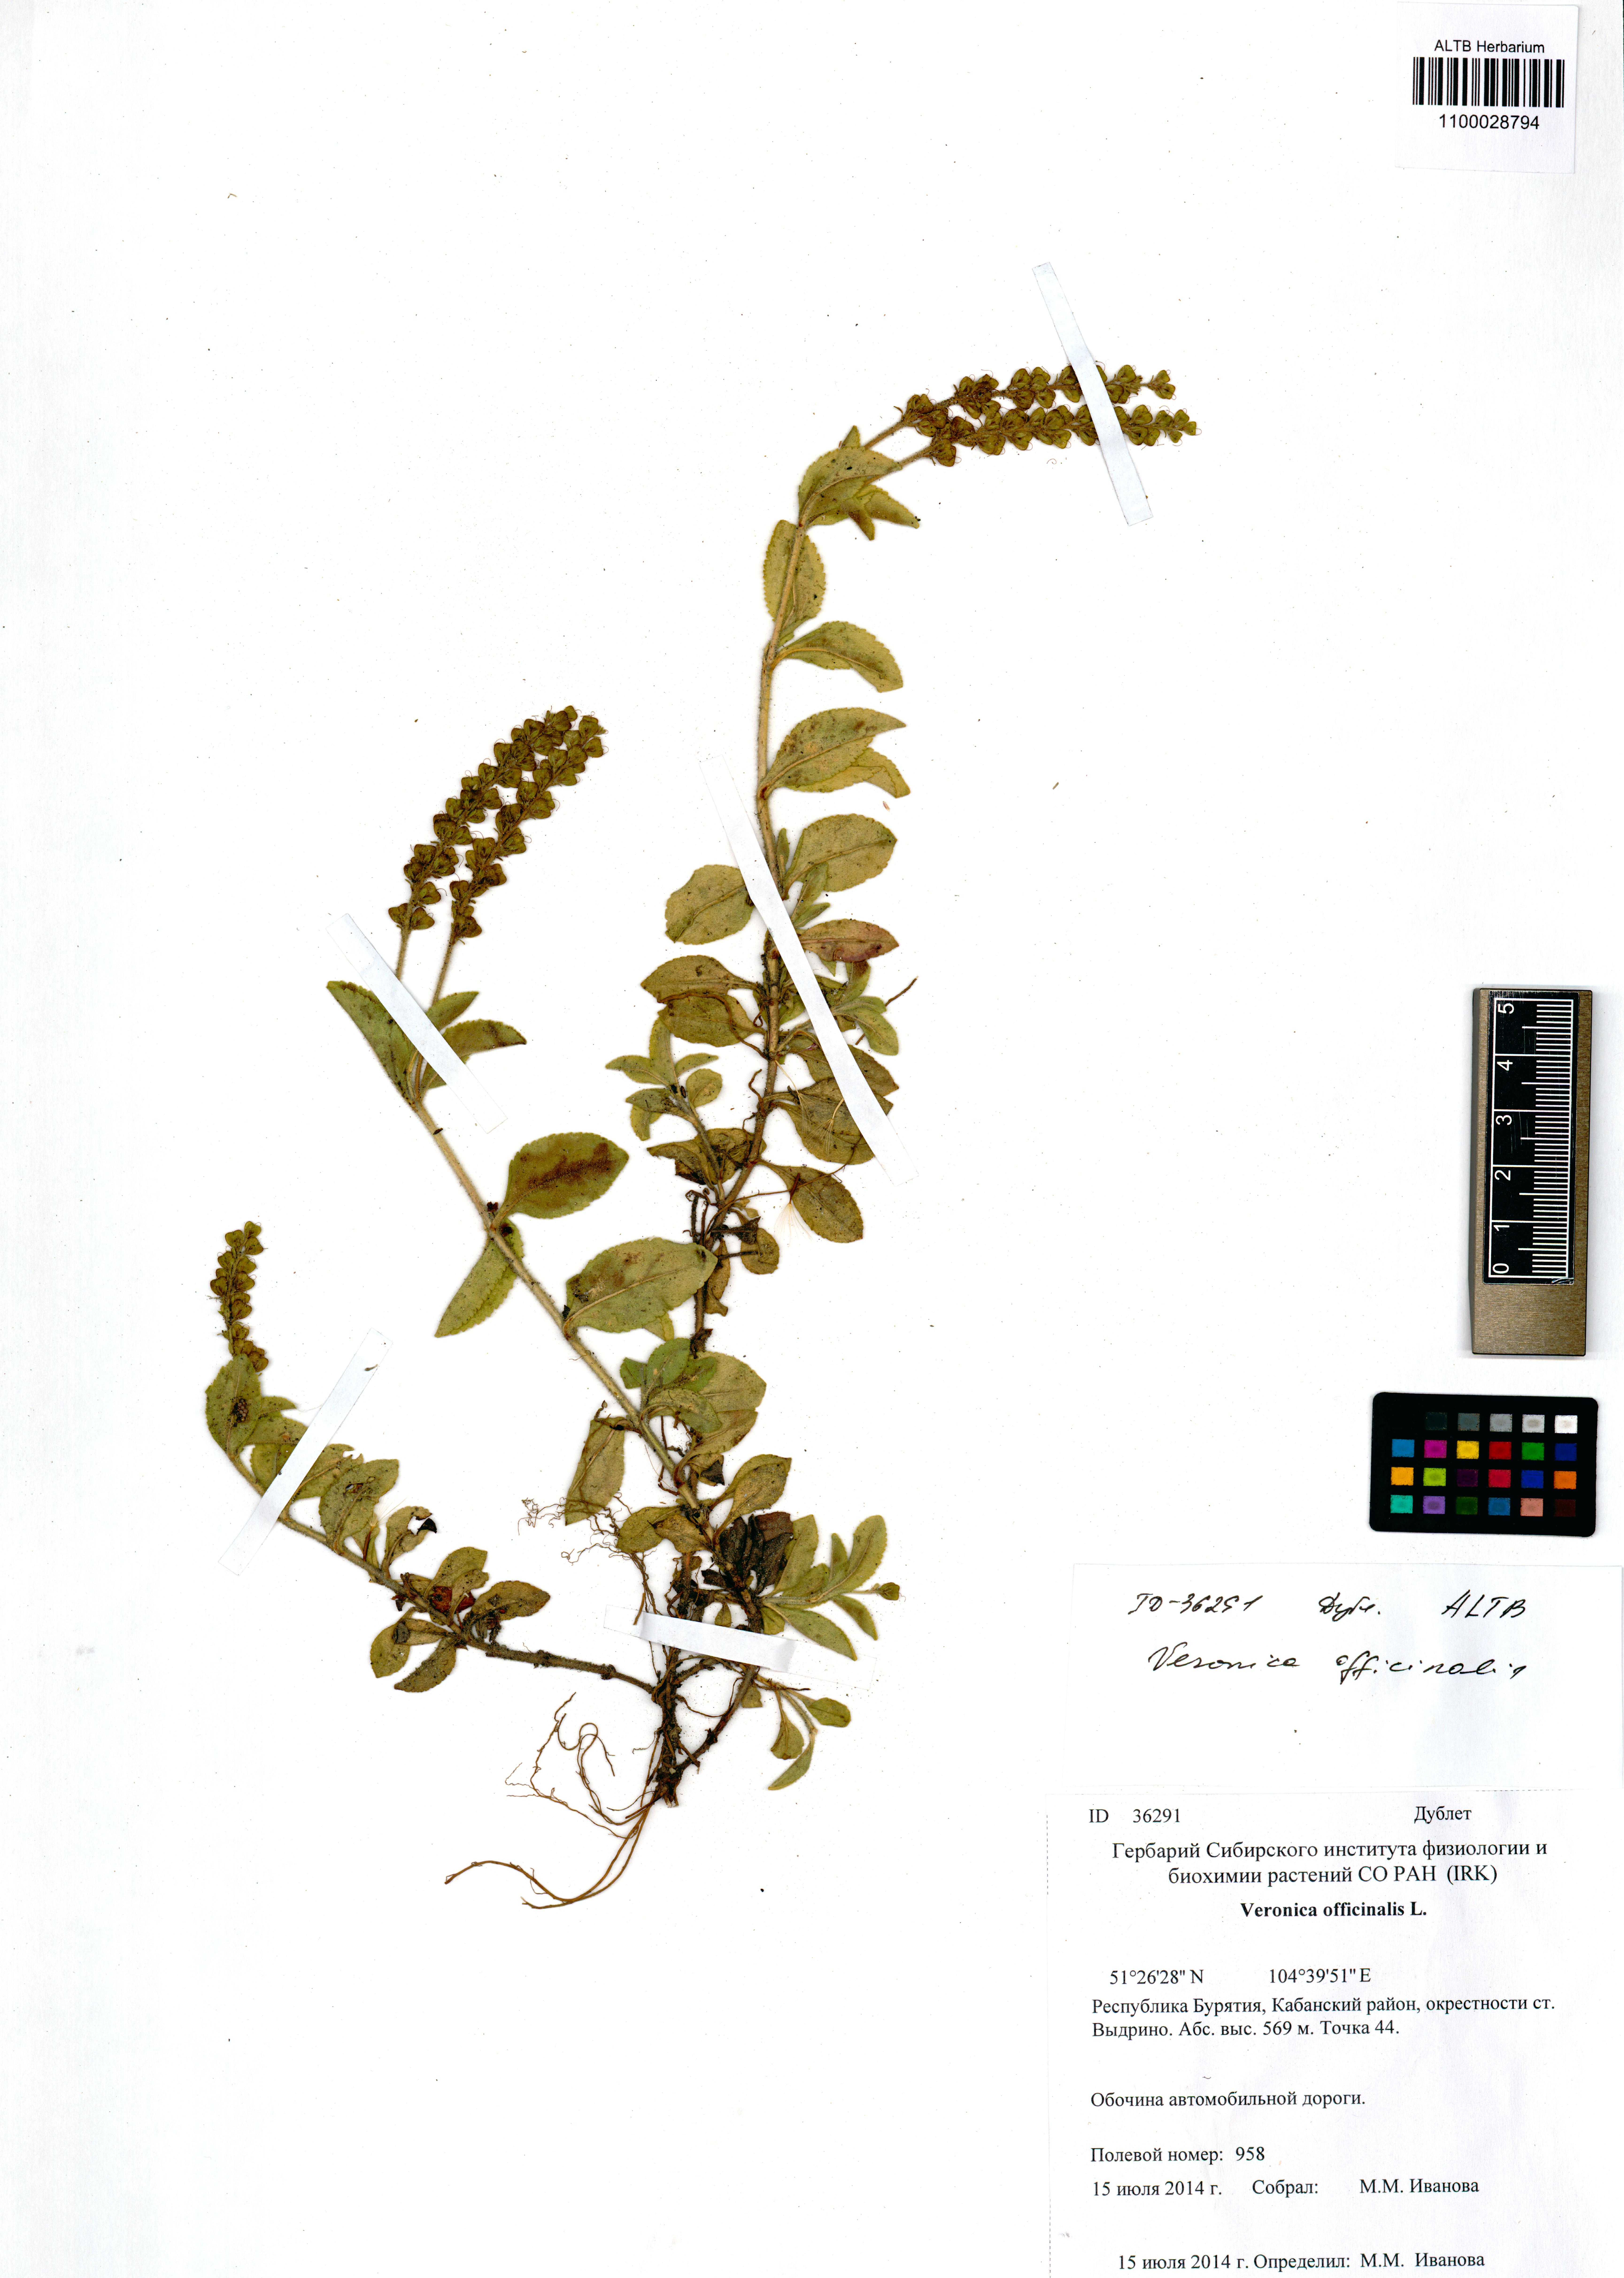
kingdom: Plantae
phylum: Tracheophyta
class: Magnoliopsida
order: Lamiales
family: Plantaginaceae
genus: Veronica
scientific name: Veronica officinalis
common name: Common speedwell
